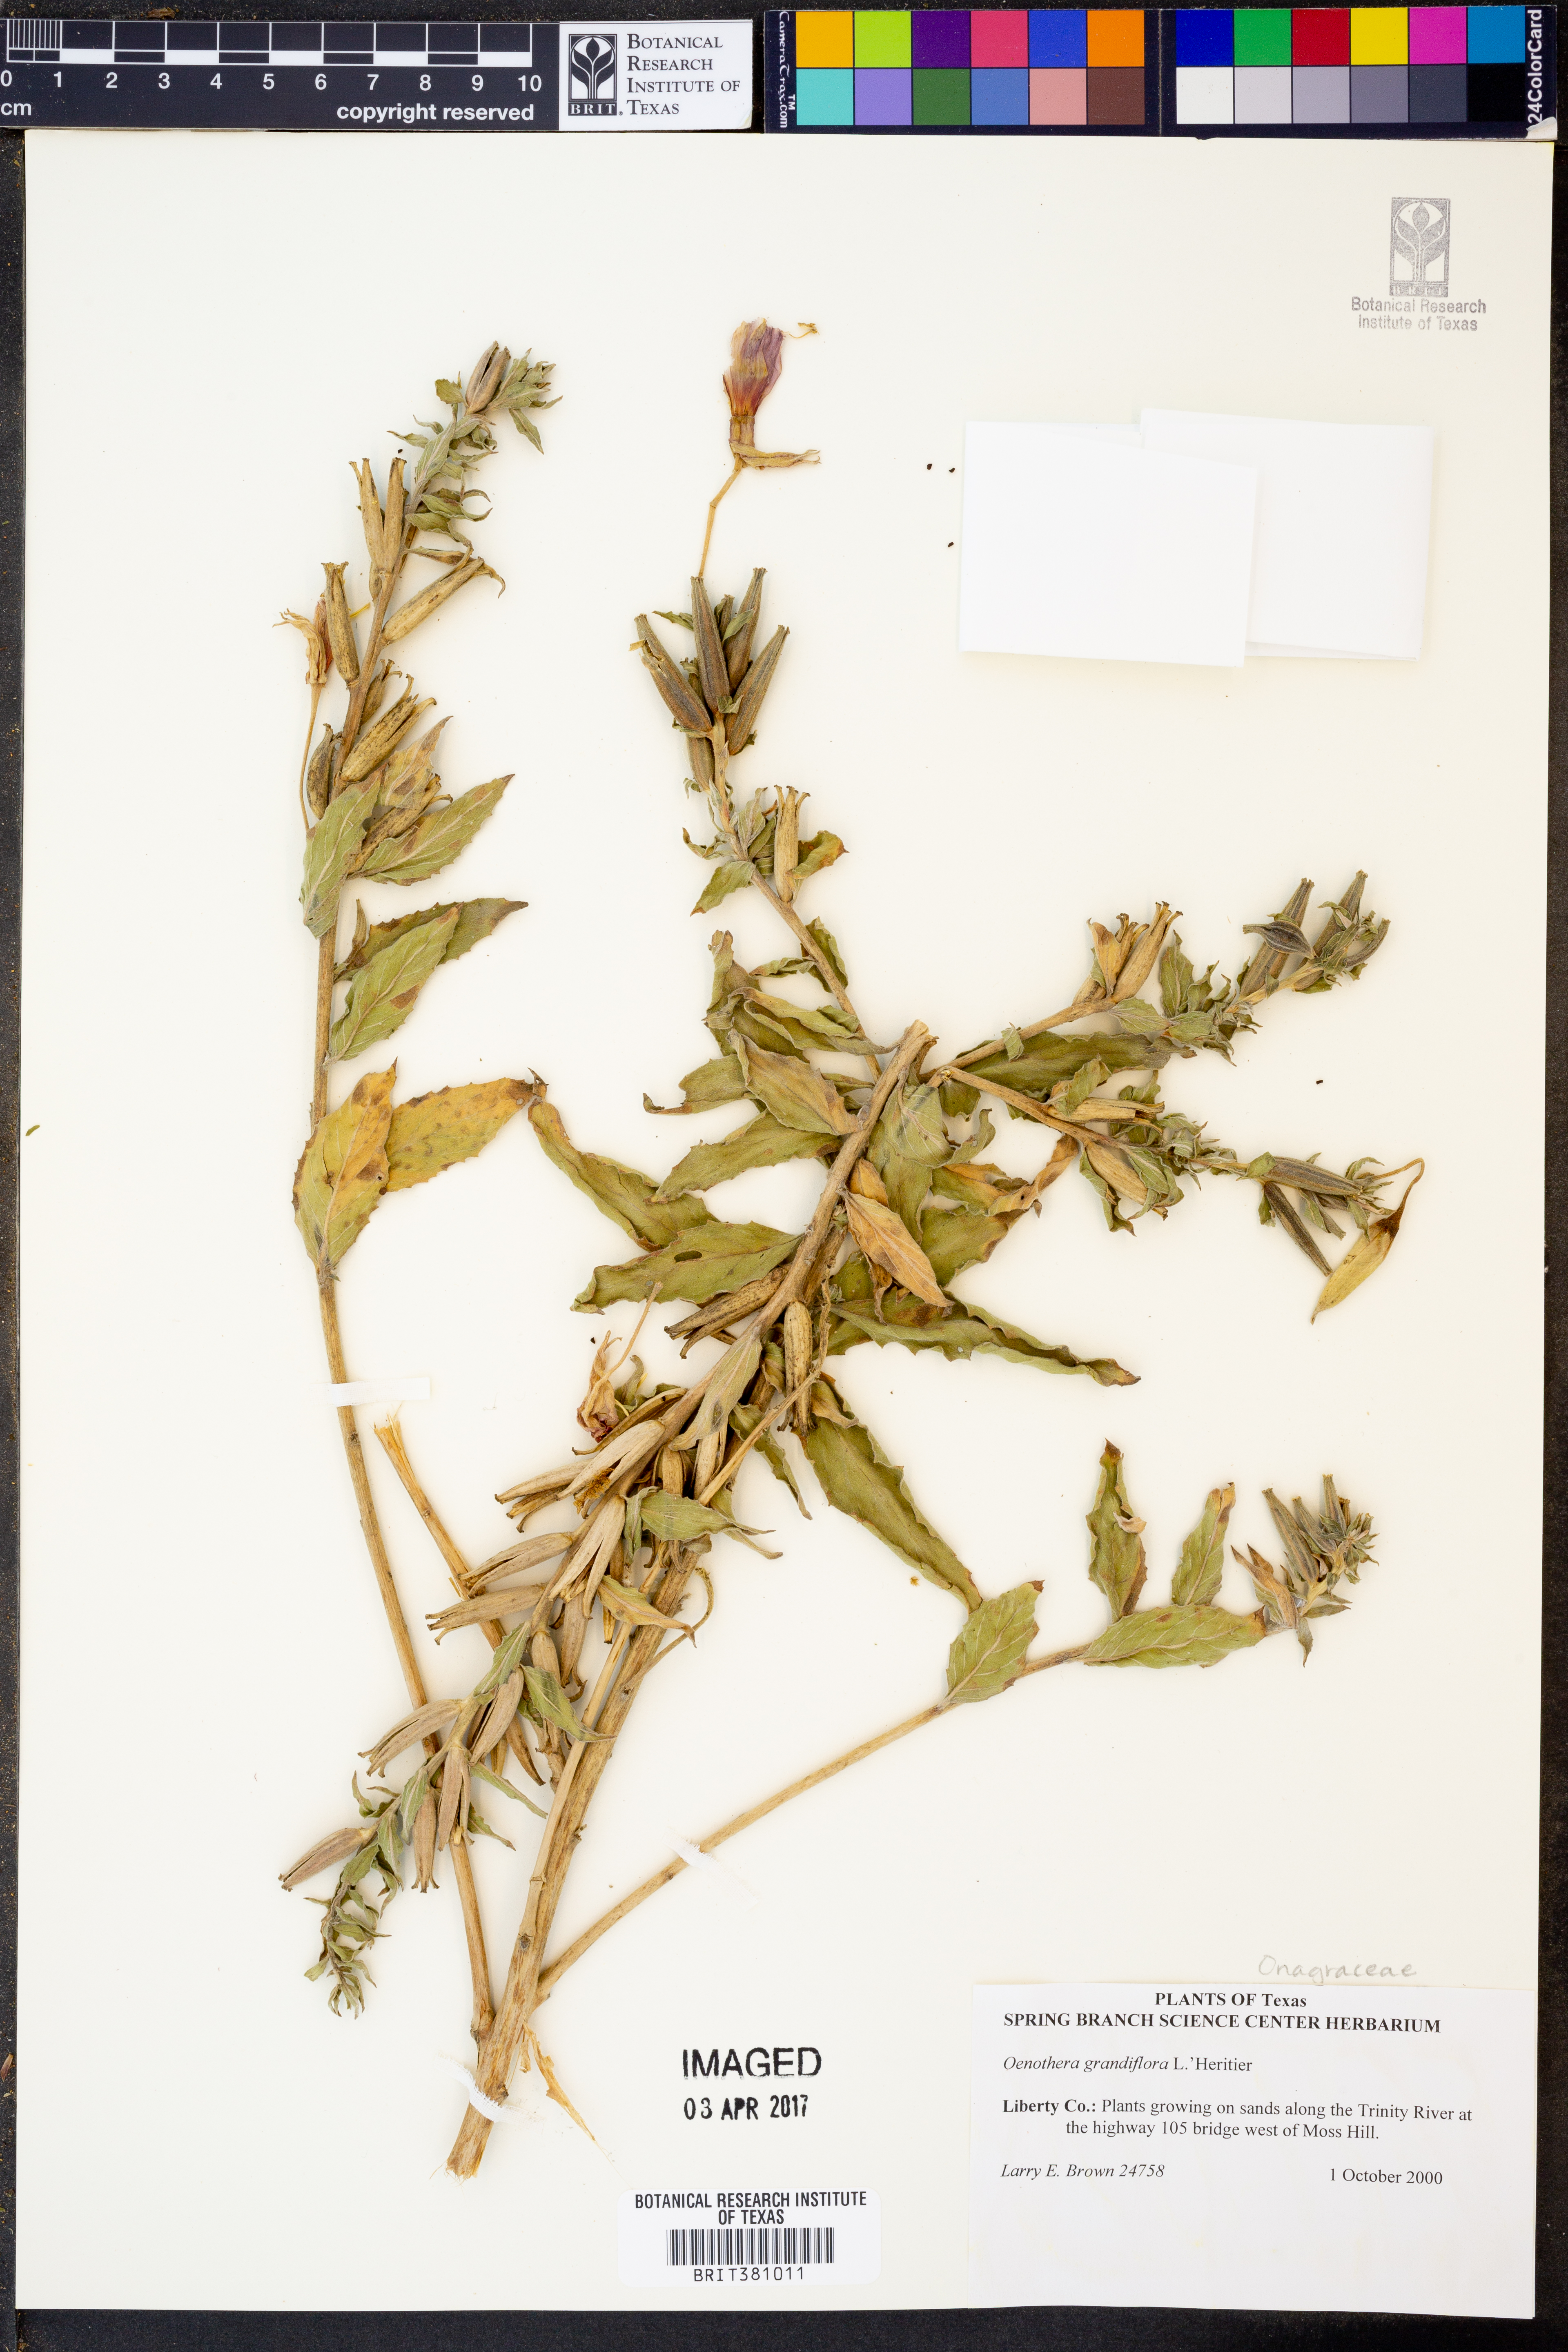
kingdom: Plantae
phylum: Tracheophyta
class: Magnoliopsida
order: Myrtales
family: Onagraceae
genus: Oenothera
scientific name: Oenothera grandiflora
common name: Large-flowered evening-primrose
